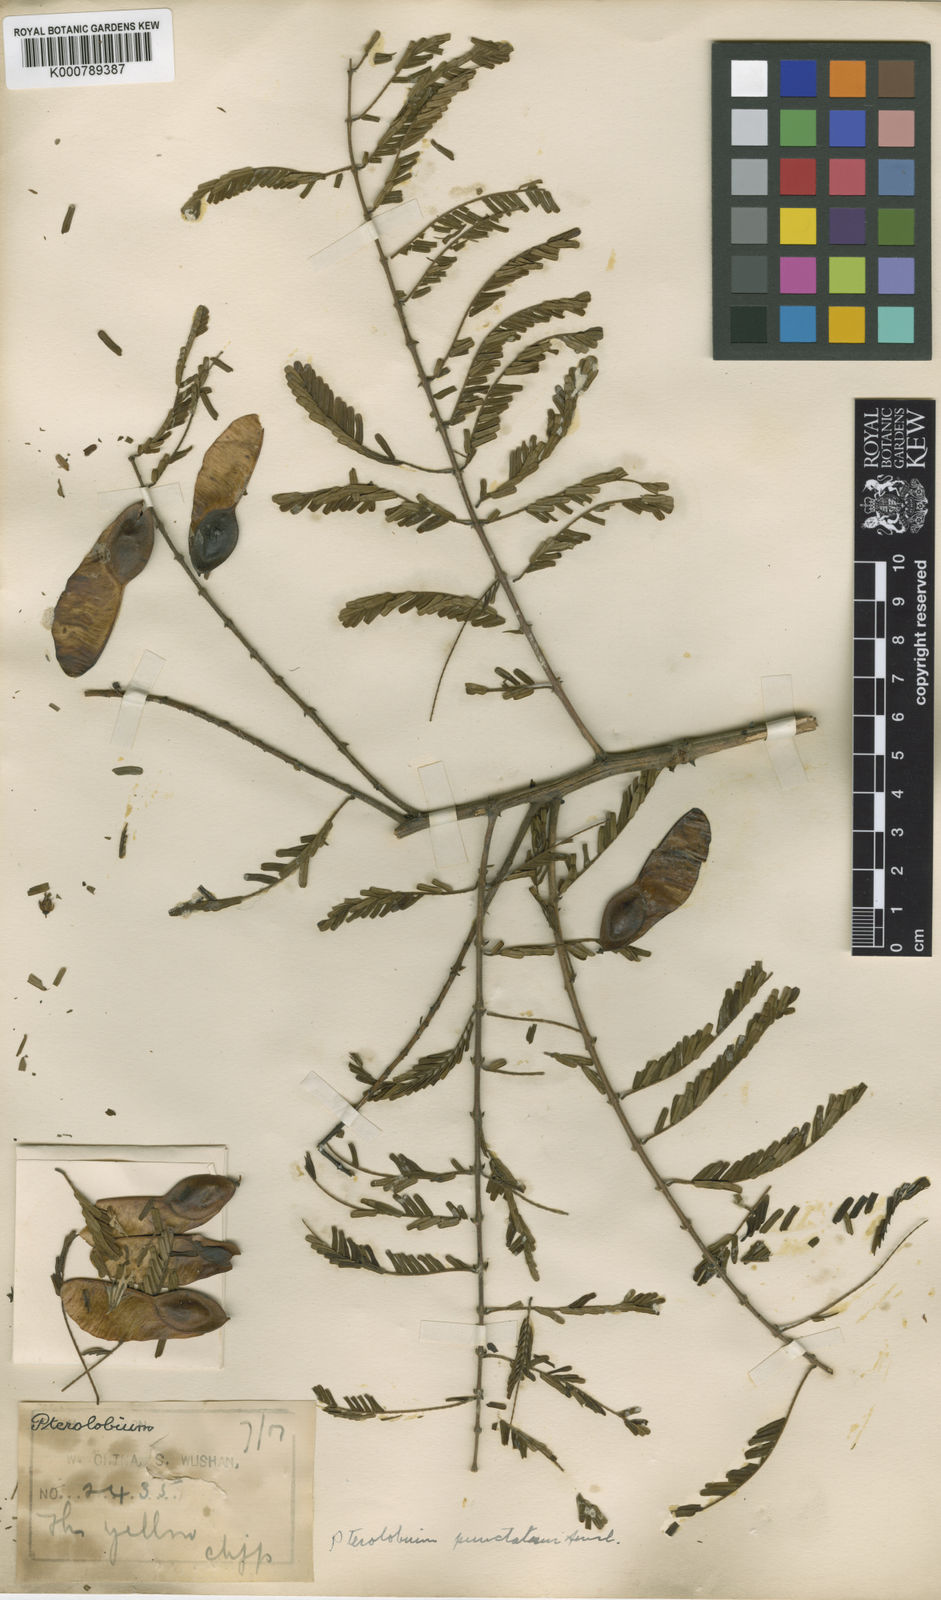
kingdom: Plantae
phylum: Tracheophyta
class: Magnoliopsida
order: Fabales
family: Fabaceae
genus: Pterolobium
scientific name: Pterolobium punctatum
